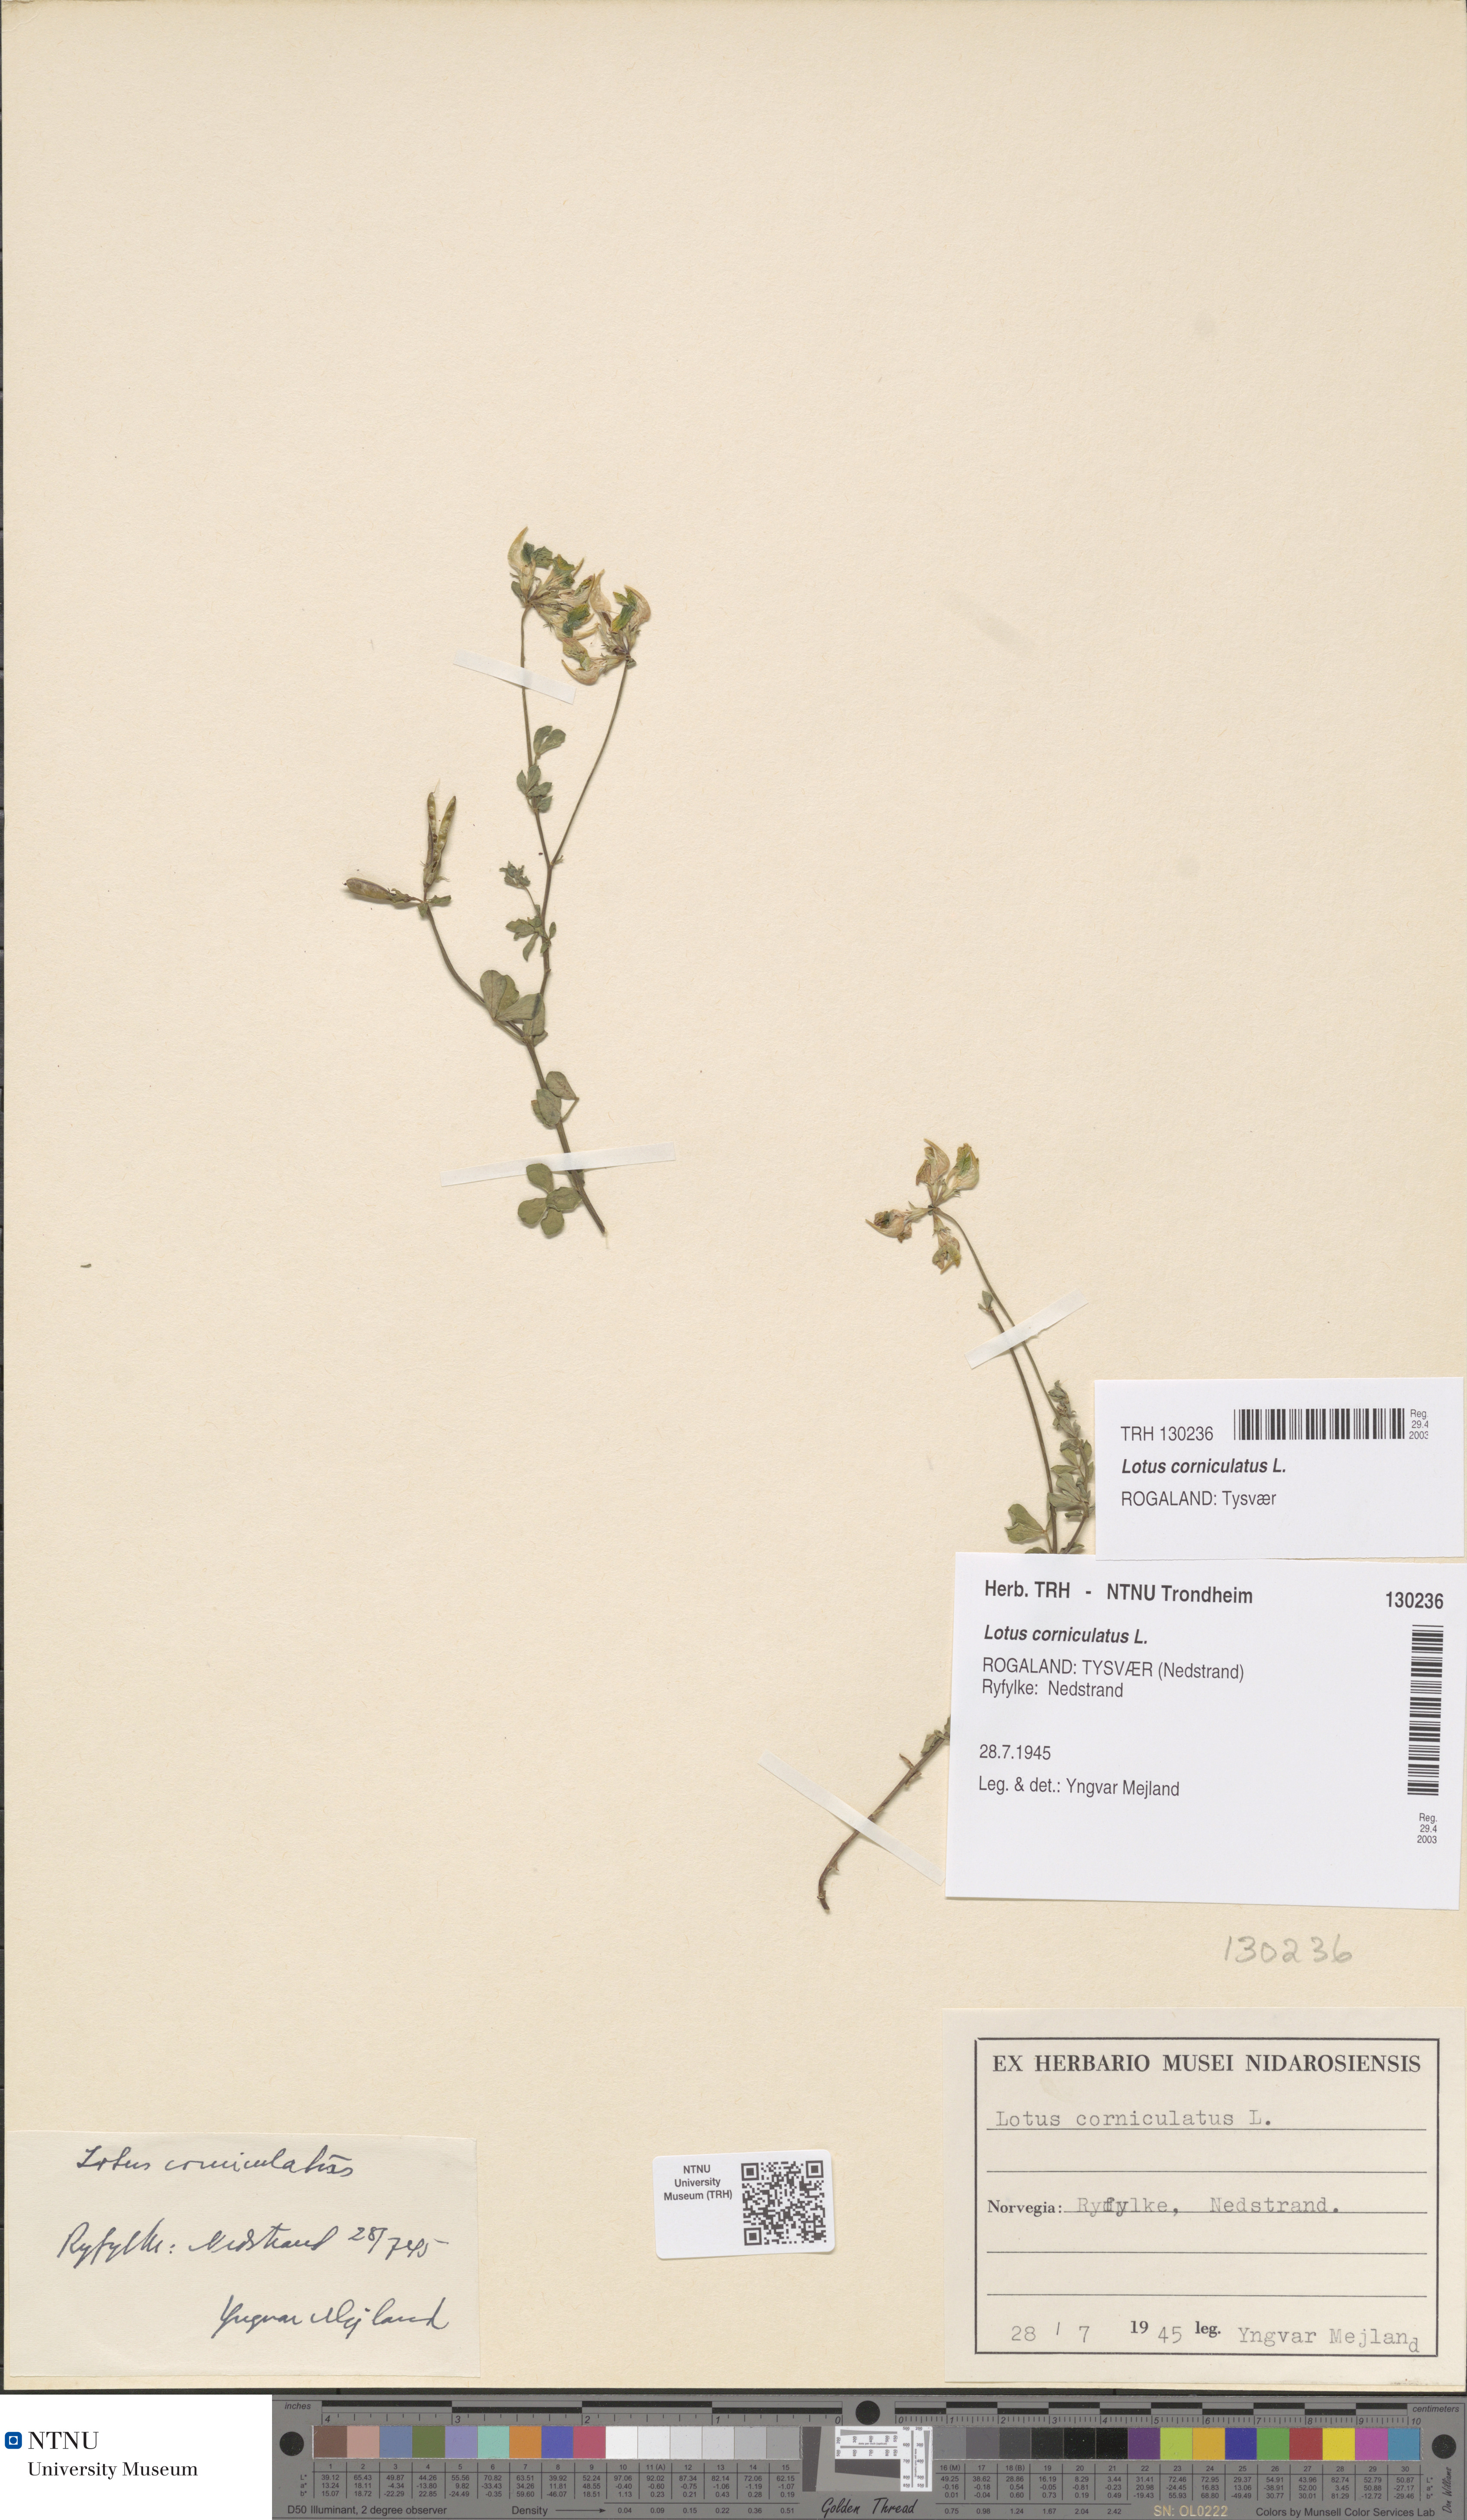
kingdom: Plantae
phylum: Tracheophyta
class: Magnoliopsida
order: Fabales
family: Fabaceae
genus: Lotus
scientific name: Lotus corniculatus
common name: Common bird's-foot-trefoil
